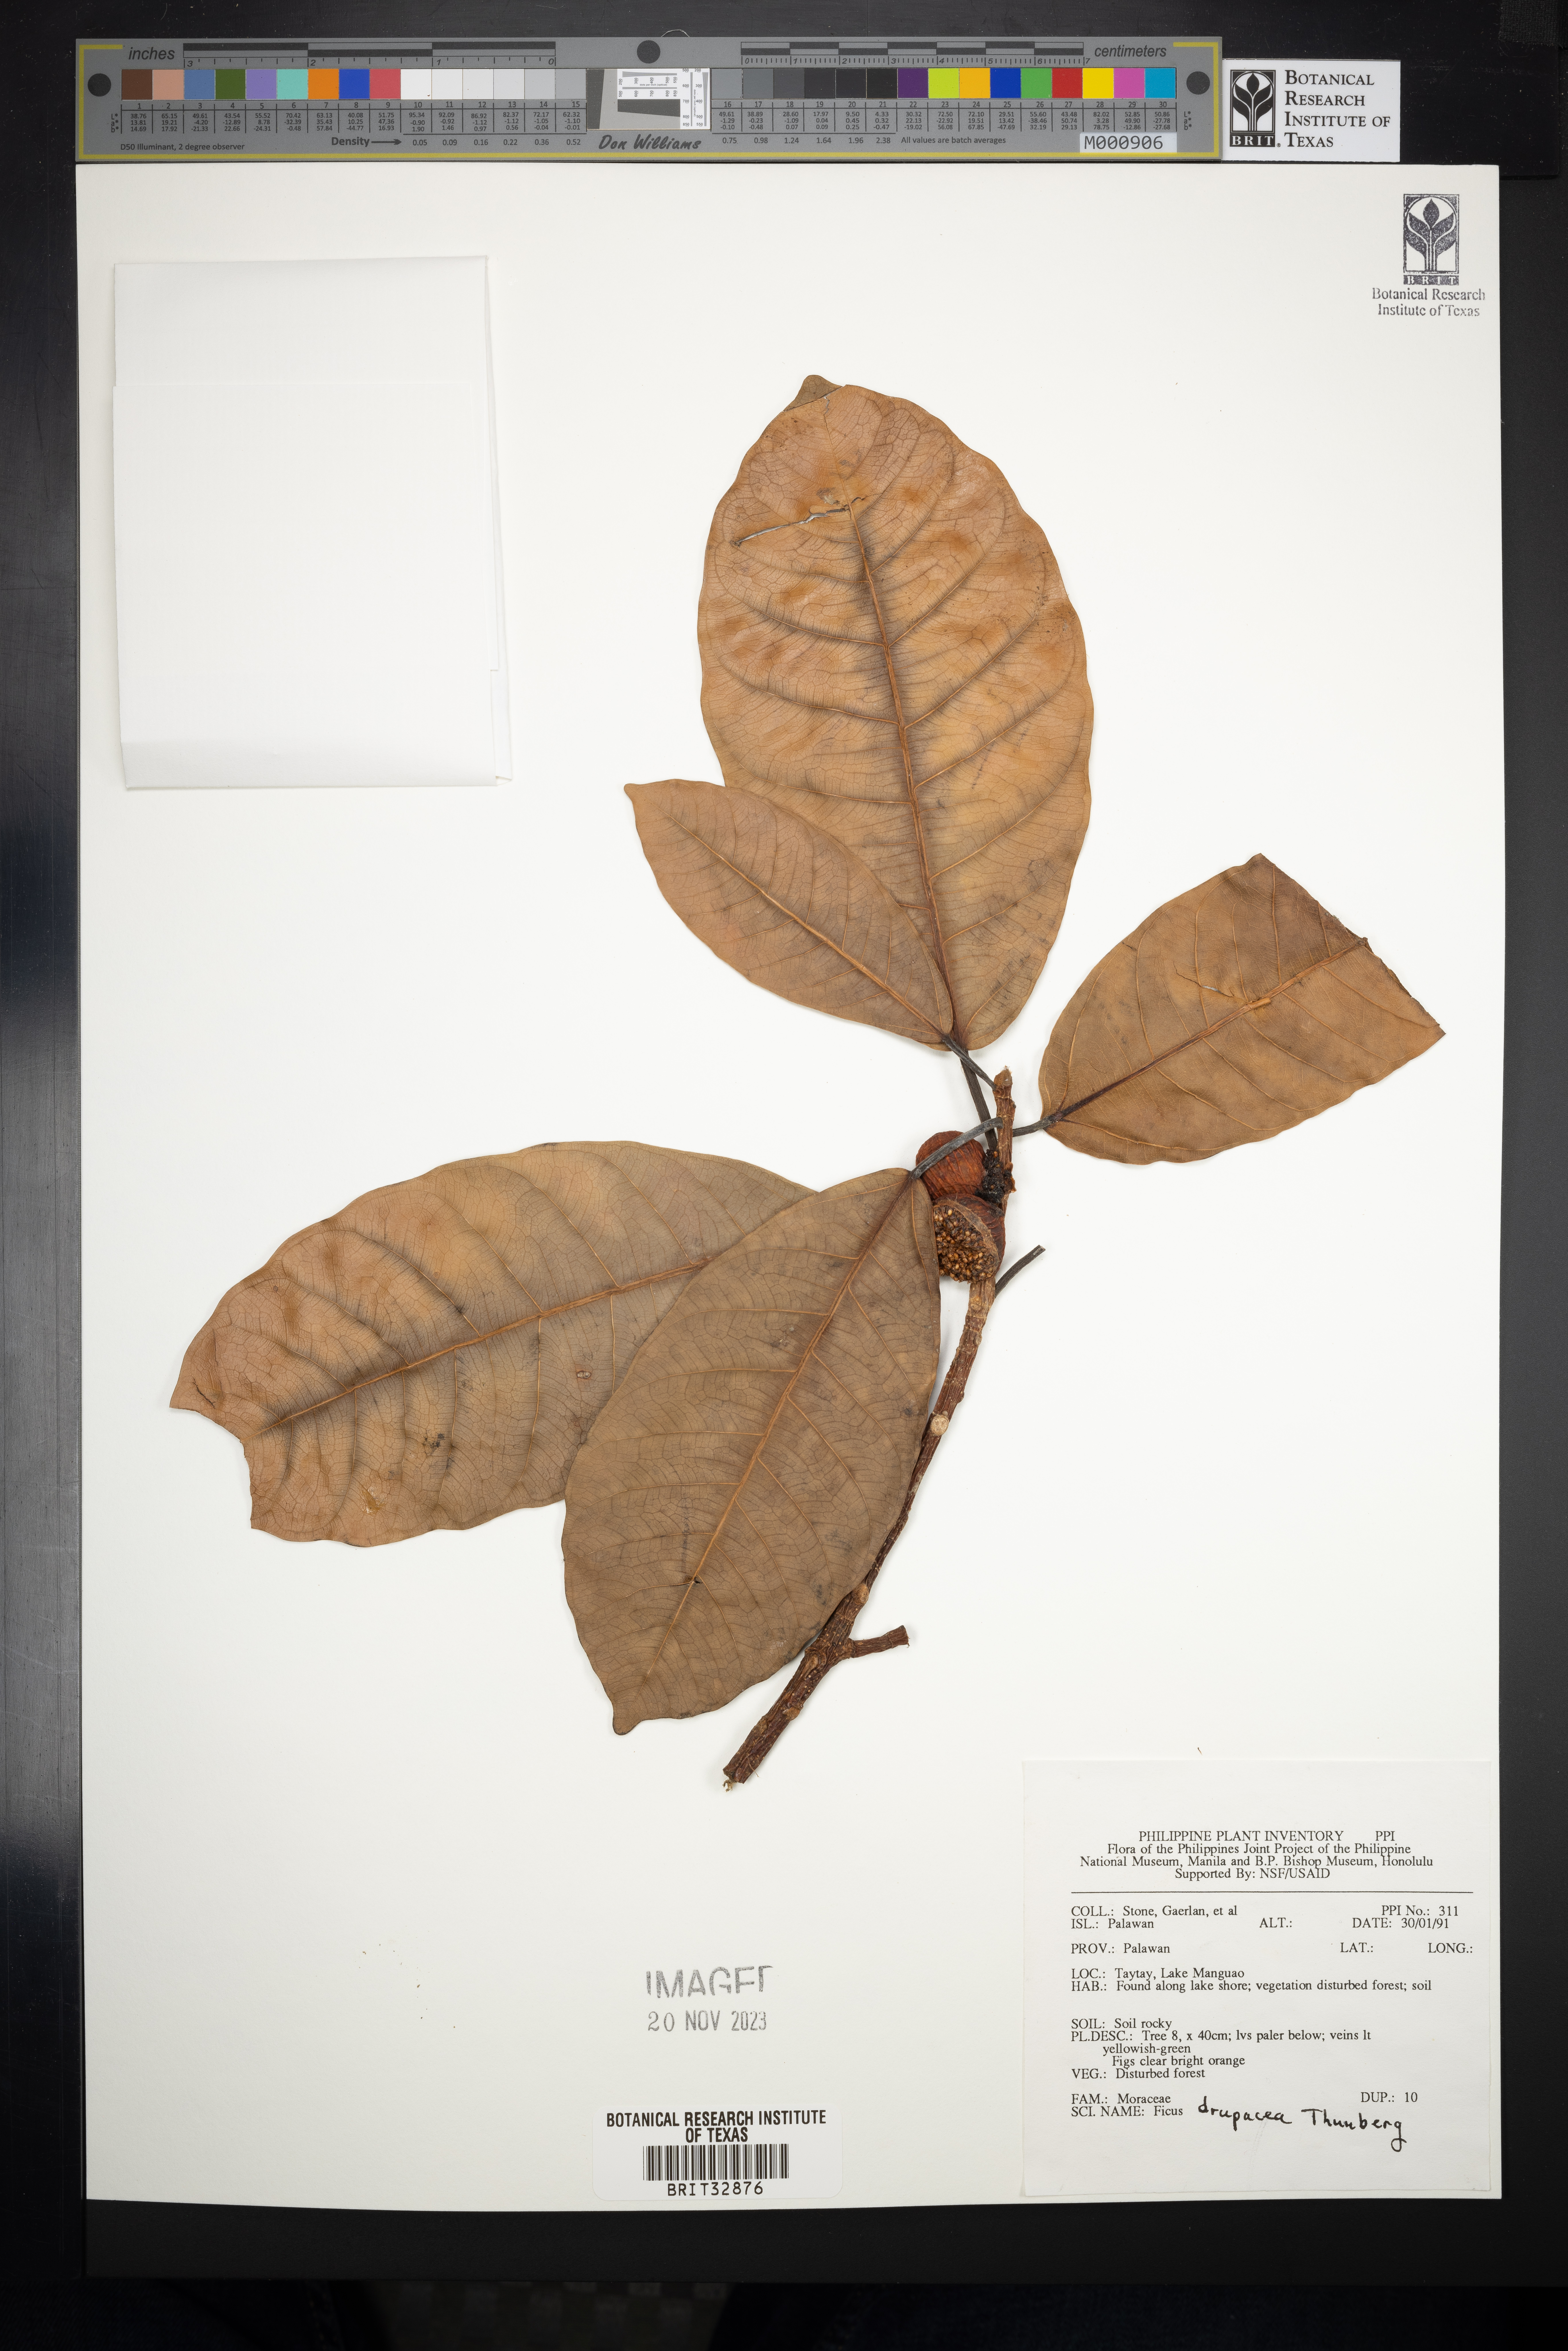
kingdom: Plantae
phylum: Tracheophyta
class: Magnoliopsida
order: Rosales
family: Moraceae
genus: Ficus
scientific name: Ficus drupacea
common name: Drupe fig
